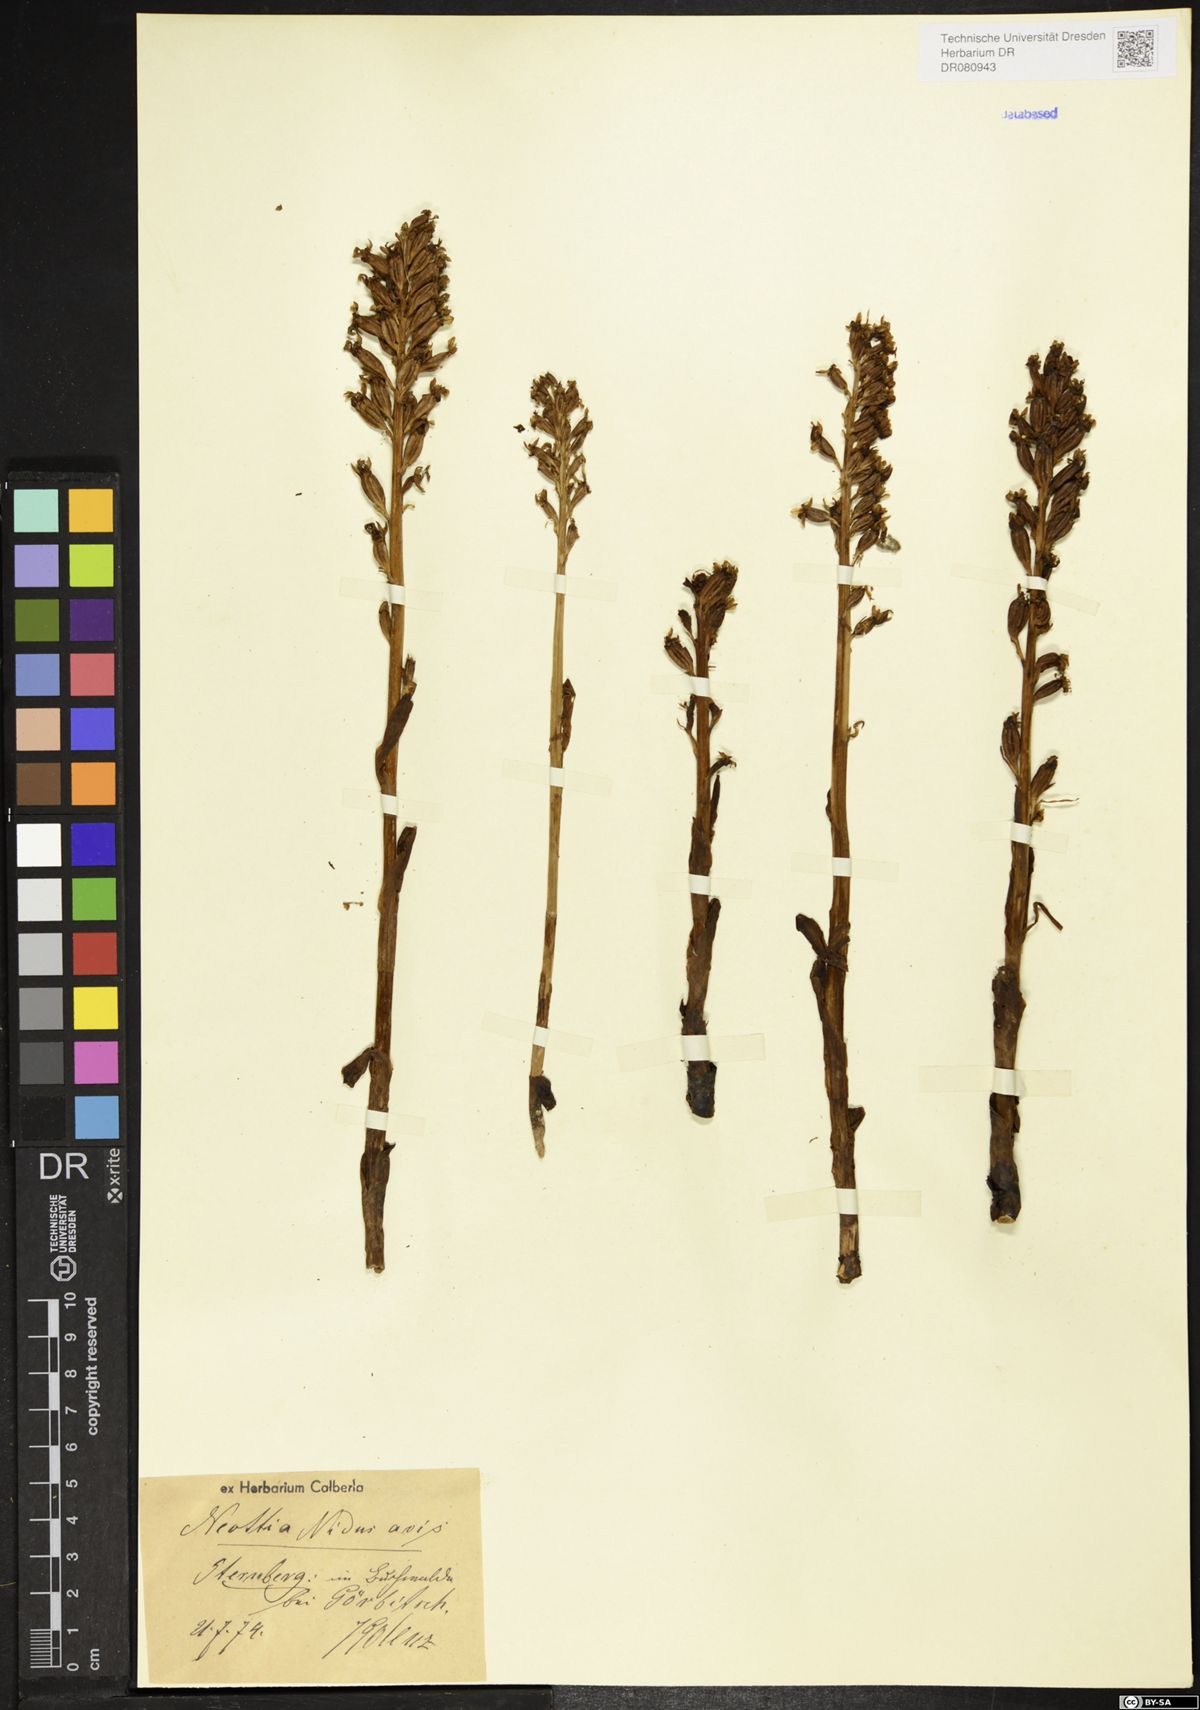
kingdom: Plantae
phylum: Tracheophyta
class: Liliopsida
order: Asparagales
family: Orchidaceae
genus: Neottia
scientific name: Neottia nidus-avis
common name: Bird's-nest orchid
